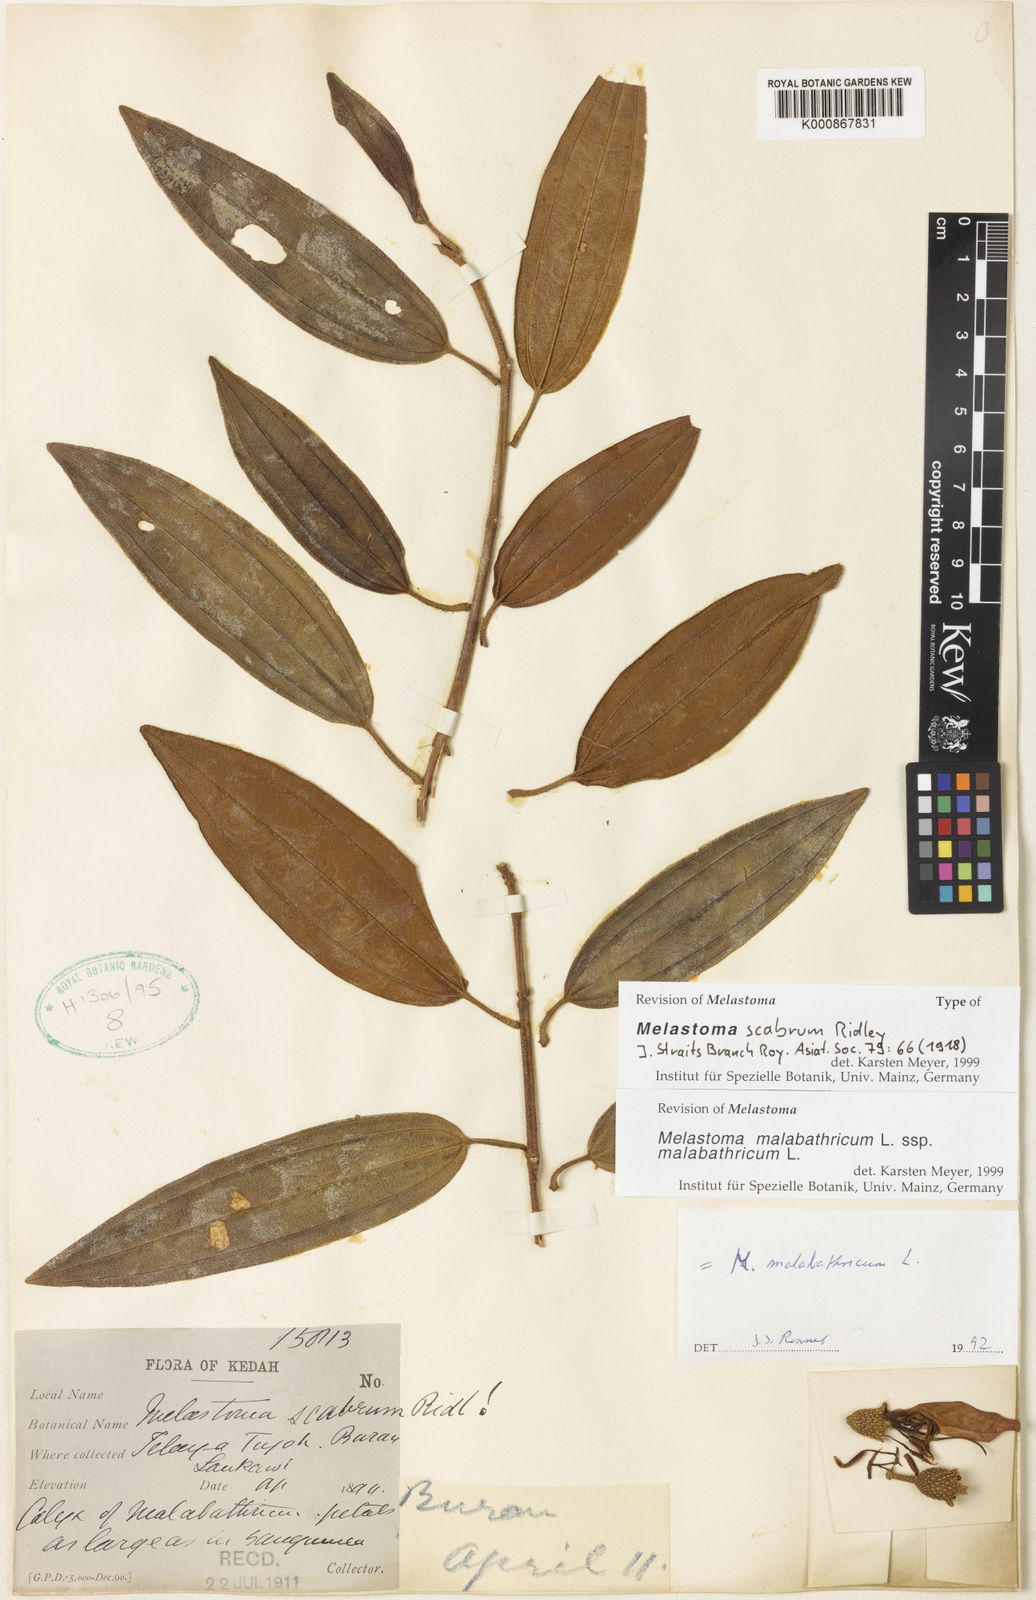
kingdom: Plantae
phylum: Tracheophyta
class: Magnoliopsida
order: Myrtales
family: Melastomataceae
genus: Melastoma
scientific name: Melastoma malabathricum
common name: Indian-rhododendron
